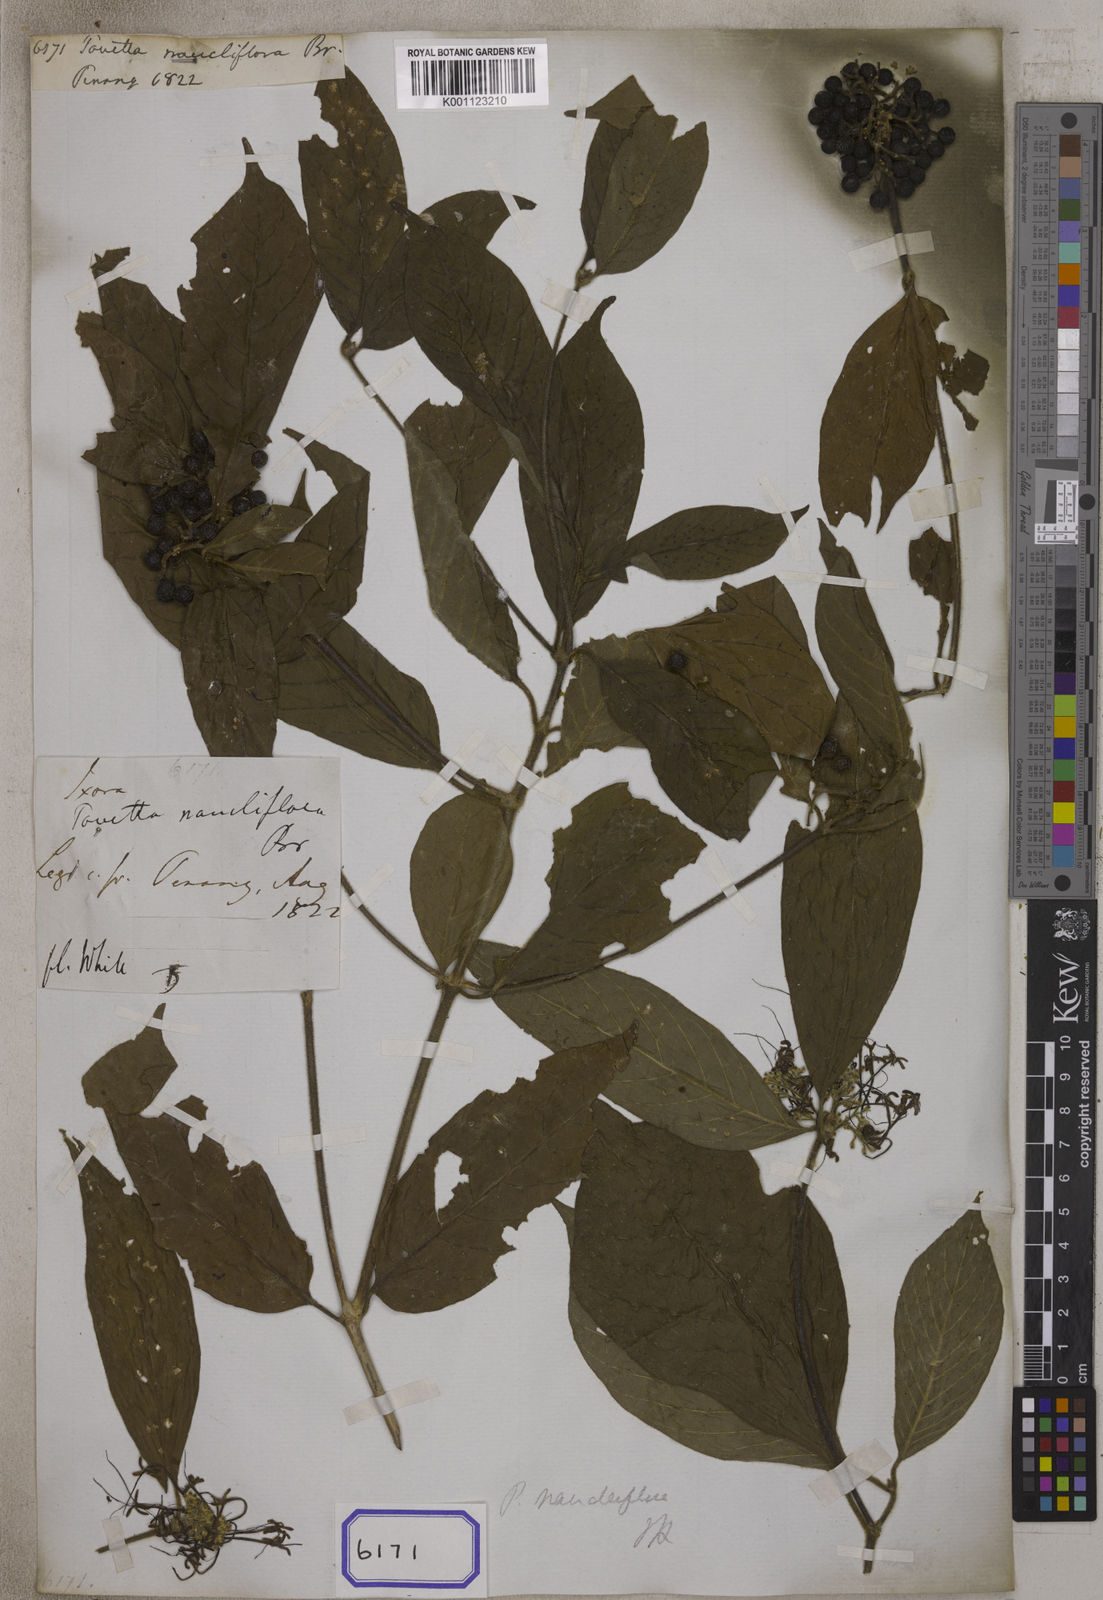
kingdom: Plantae
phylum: Tracheophyta
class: Magnoliopsida
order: Gentianales
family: Rubiaceae
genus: Pavetta
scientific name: Pavetta
